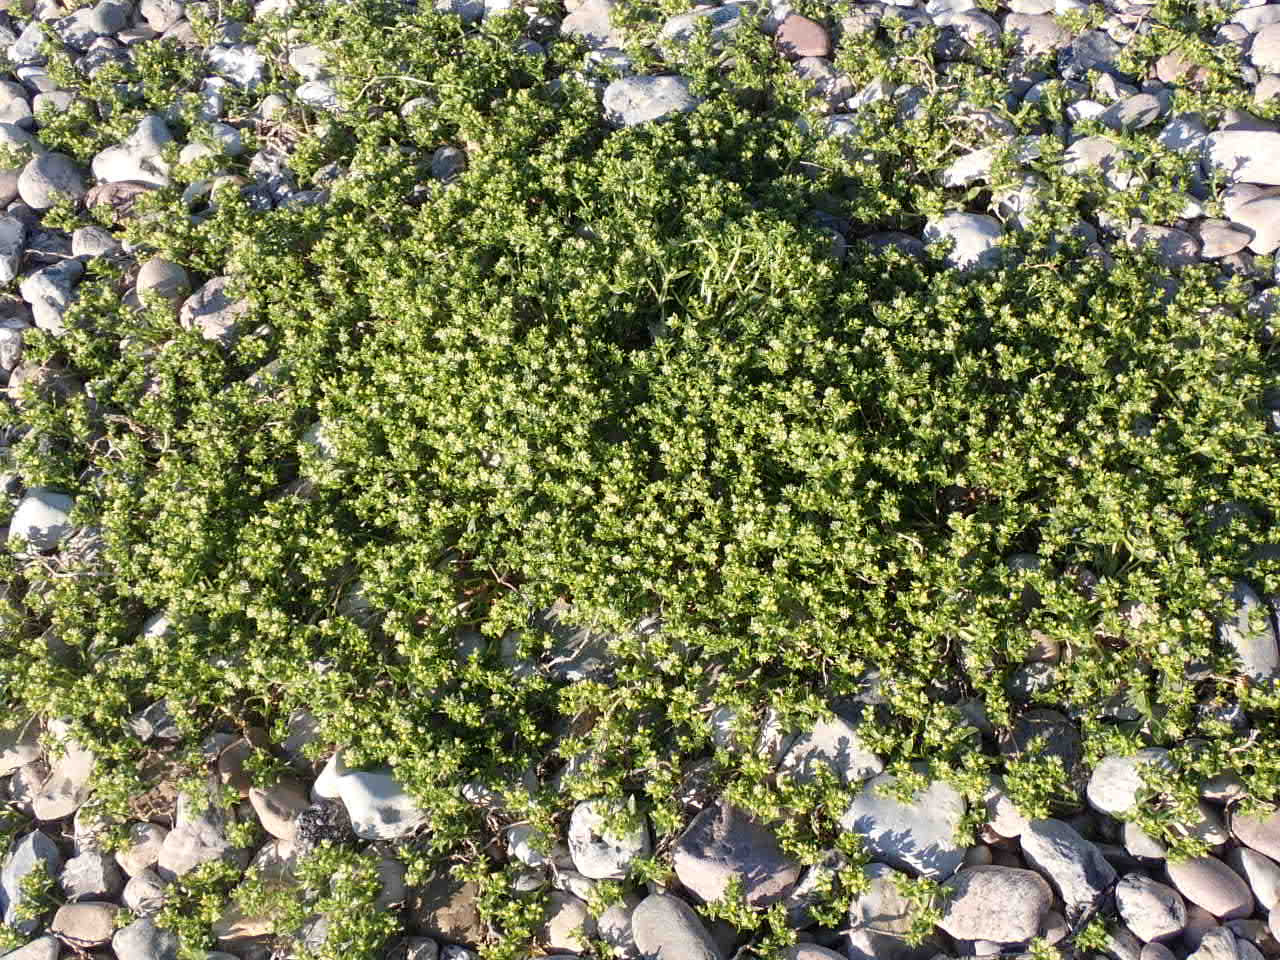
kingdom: Plantae
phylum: Tracheophyta
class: Magnoliopsida
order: Caryophyllales
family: Caryophyllaceae
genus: Honckenya
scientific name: Honckenya peploides
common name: Strandarve
